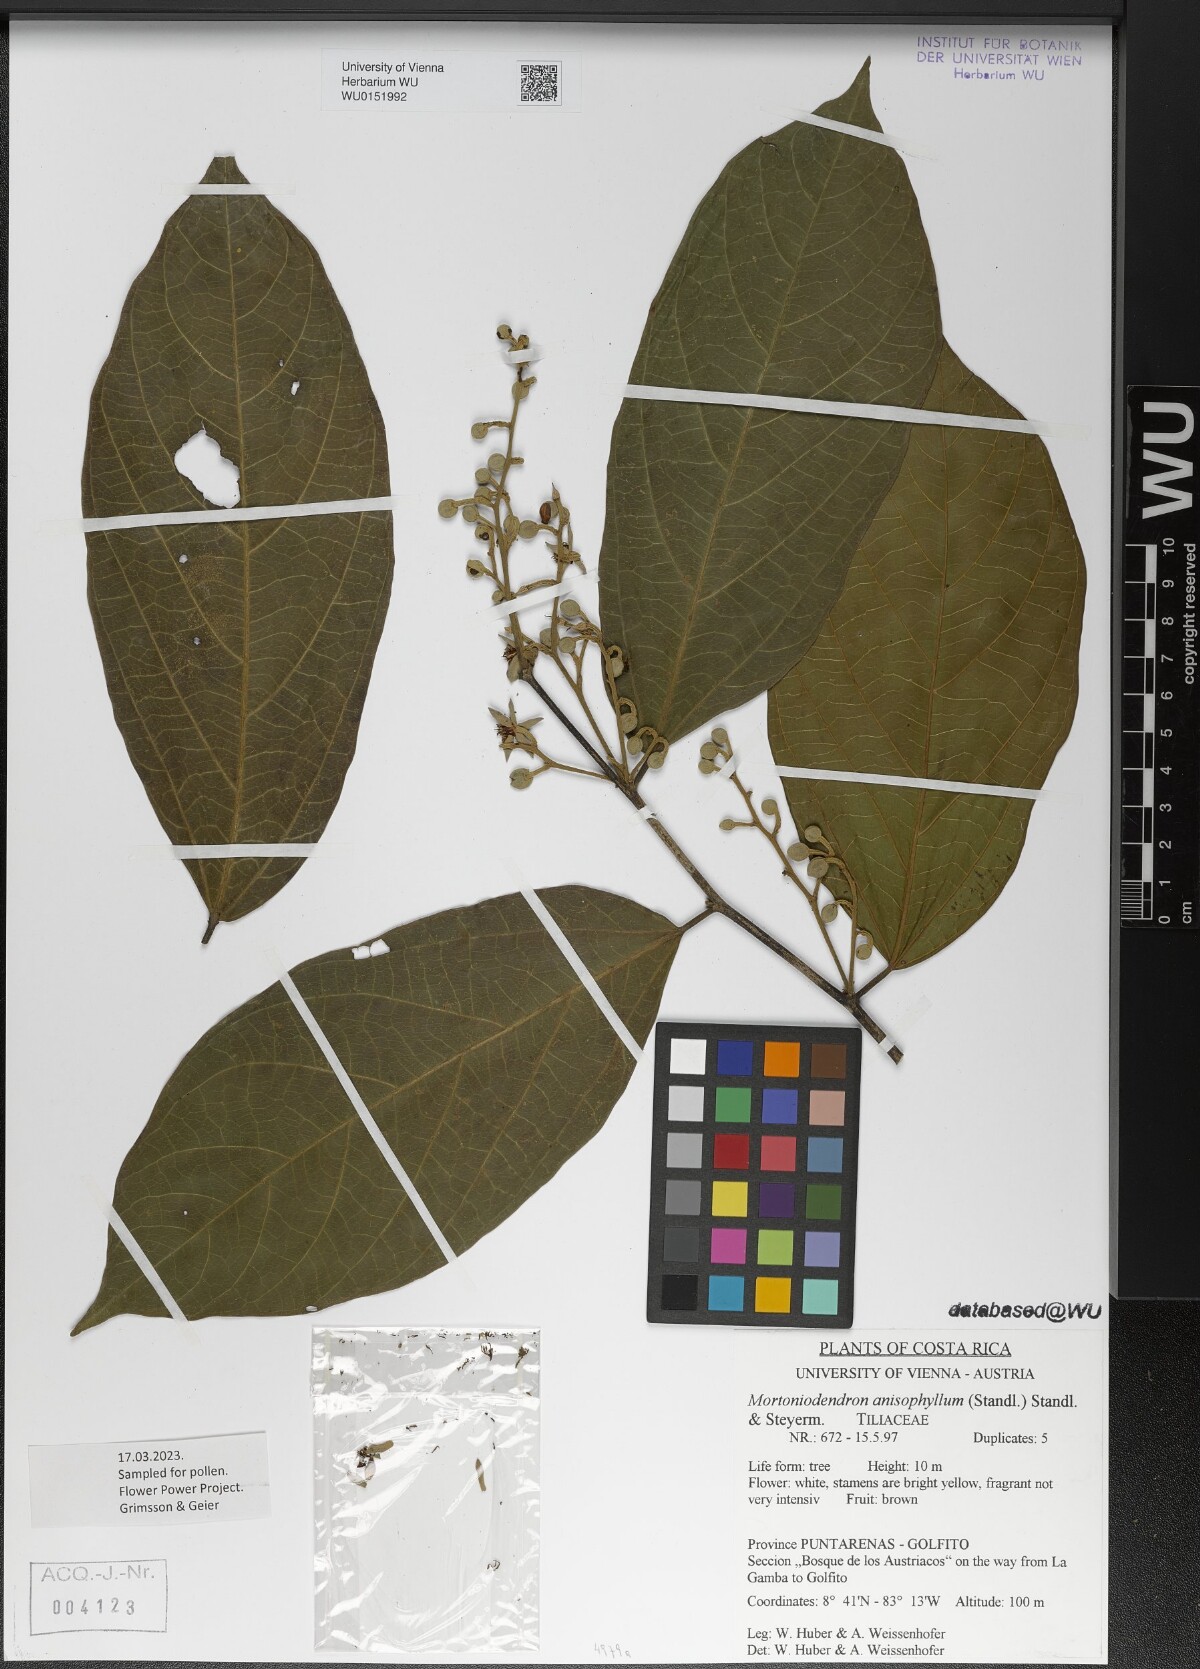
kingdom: Plantae
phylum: Tracheophyta
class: Magnoliopsida
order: Malvales
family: Malvaceae
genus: Mortoniodendron
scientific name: Mortoniodendron anisophyllum
